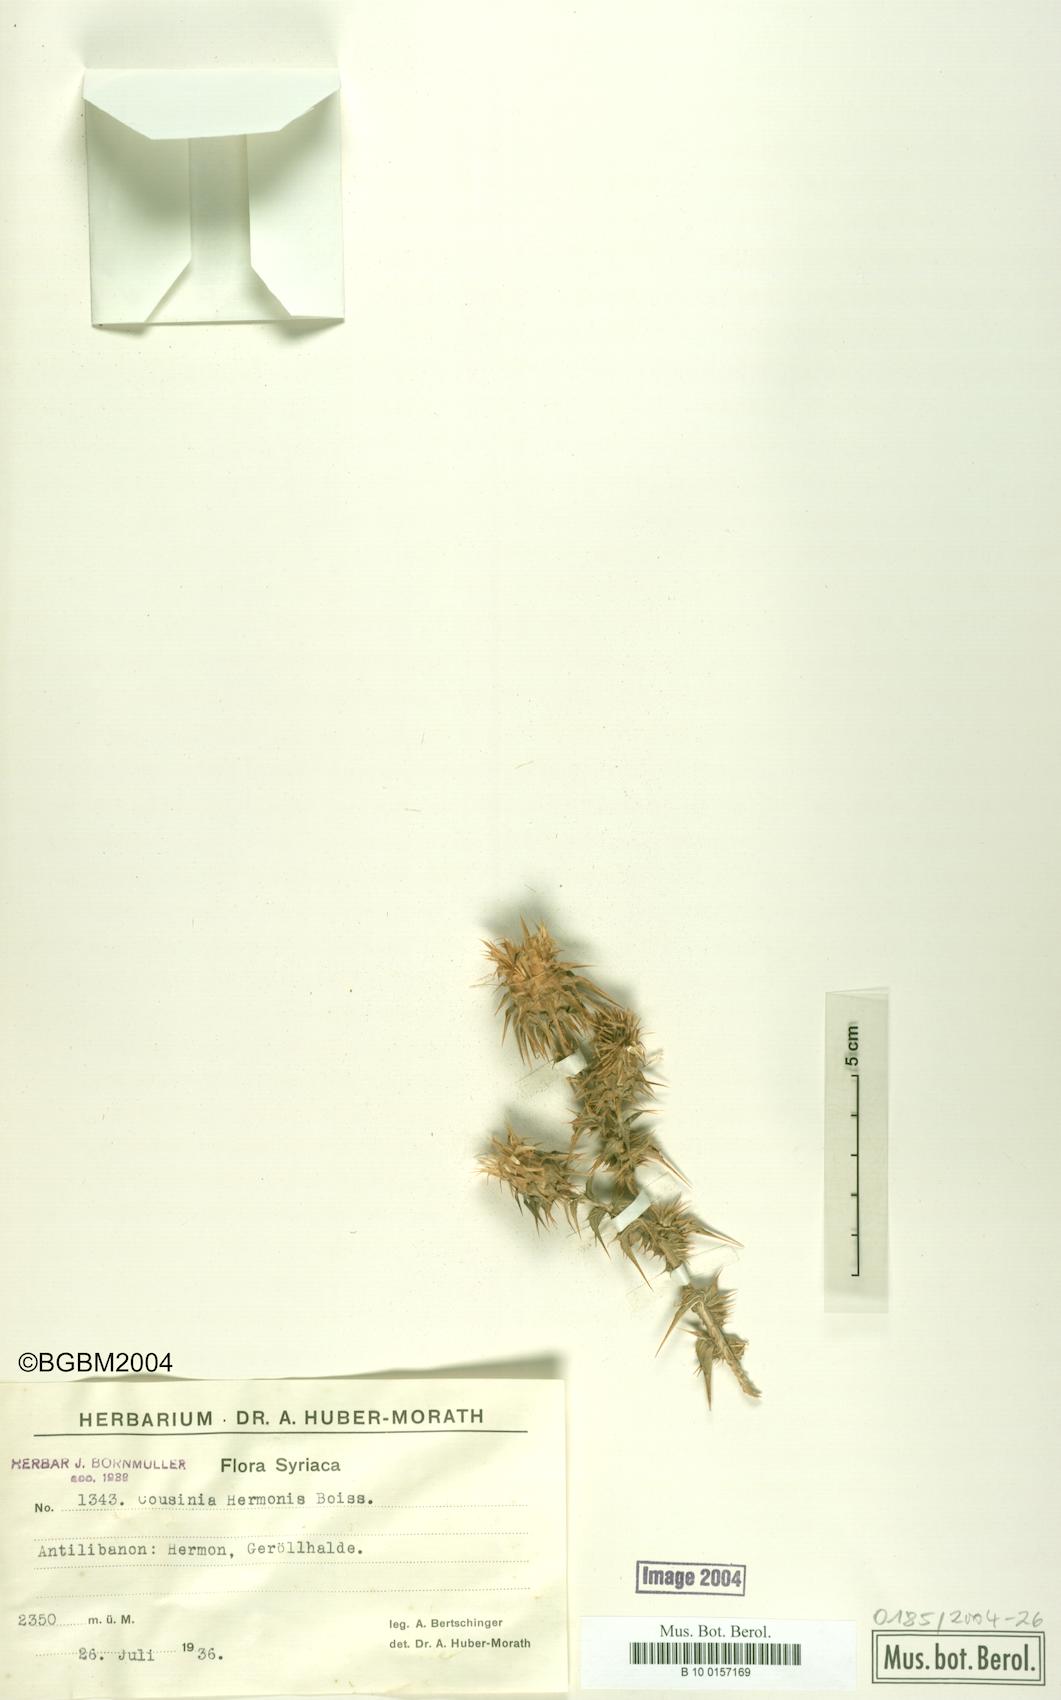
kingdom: Plantae
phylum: Tracheophyta
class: Magnoliopsida
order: Asterales
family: Asteraceae
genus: Cousinia
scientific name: Cousinia libanotica
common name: Lebanon cousinia
